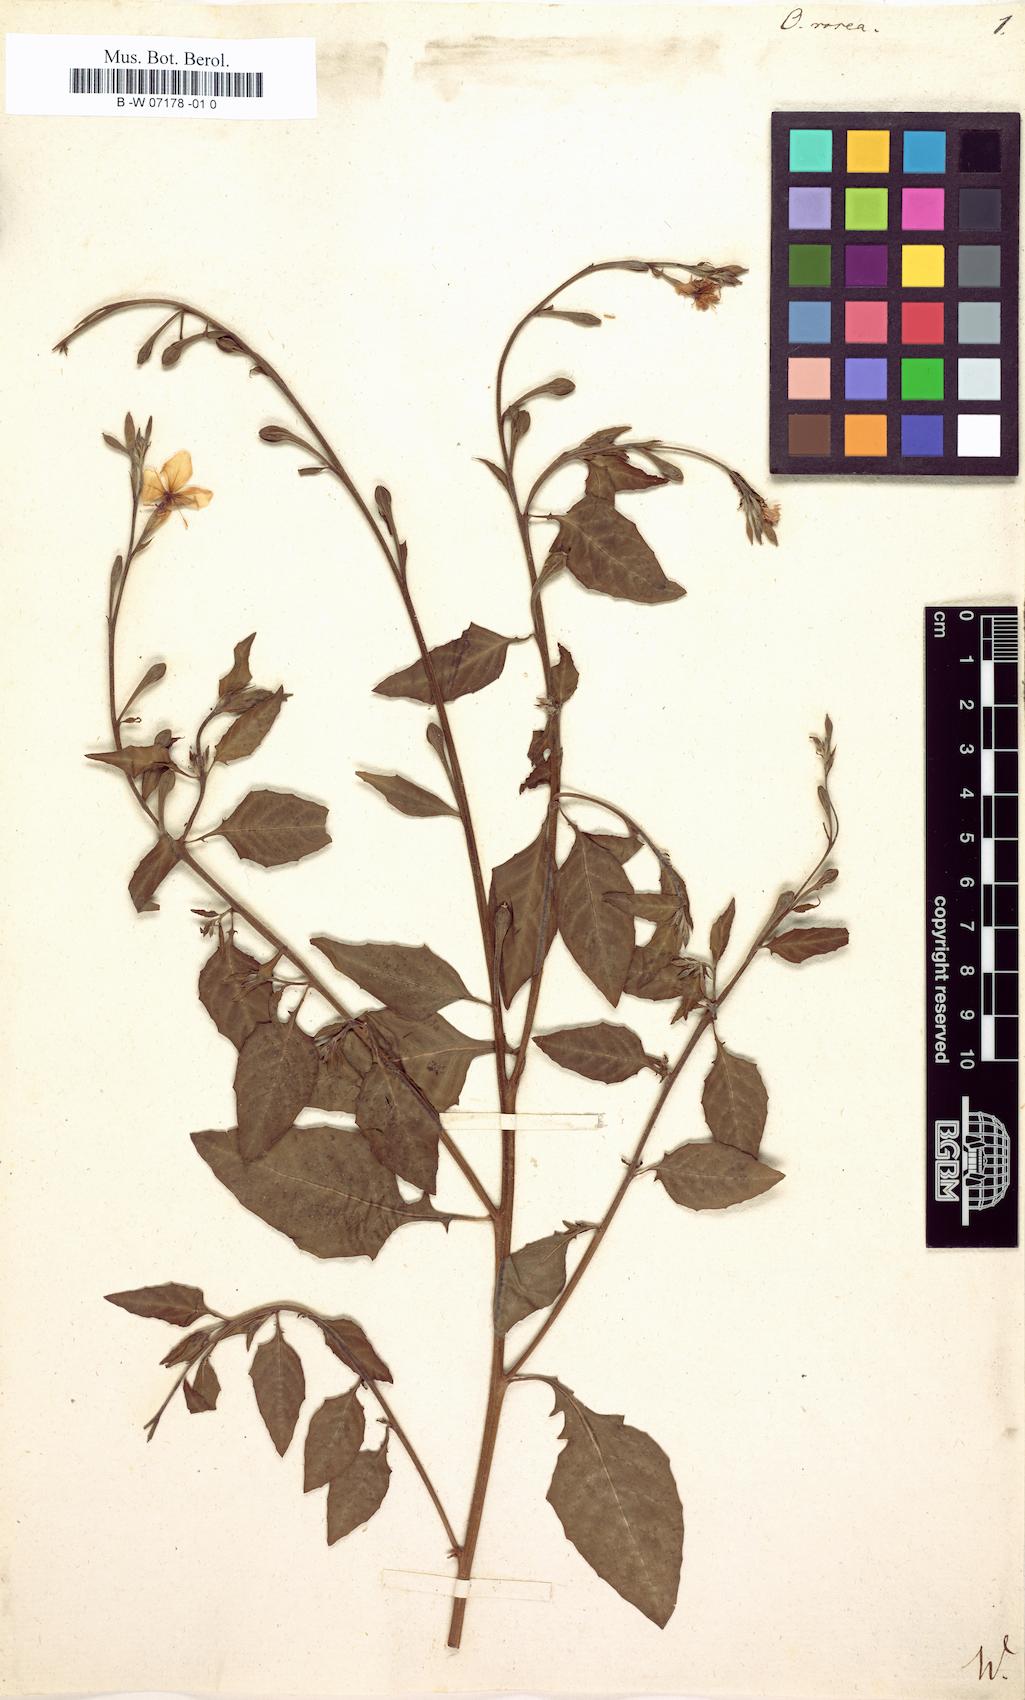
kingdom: Plantae
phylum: Tracheophyta
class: Magnoliopsida
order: Myrtales
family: Onagraceae
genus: Oenothera
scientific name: Oenothera rosea
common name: Rosy evening-primrose
